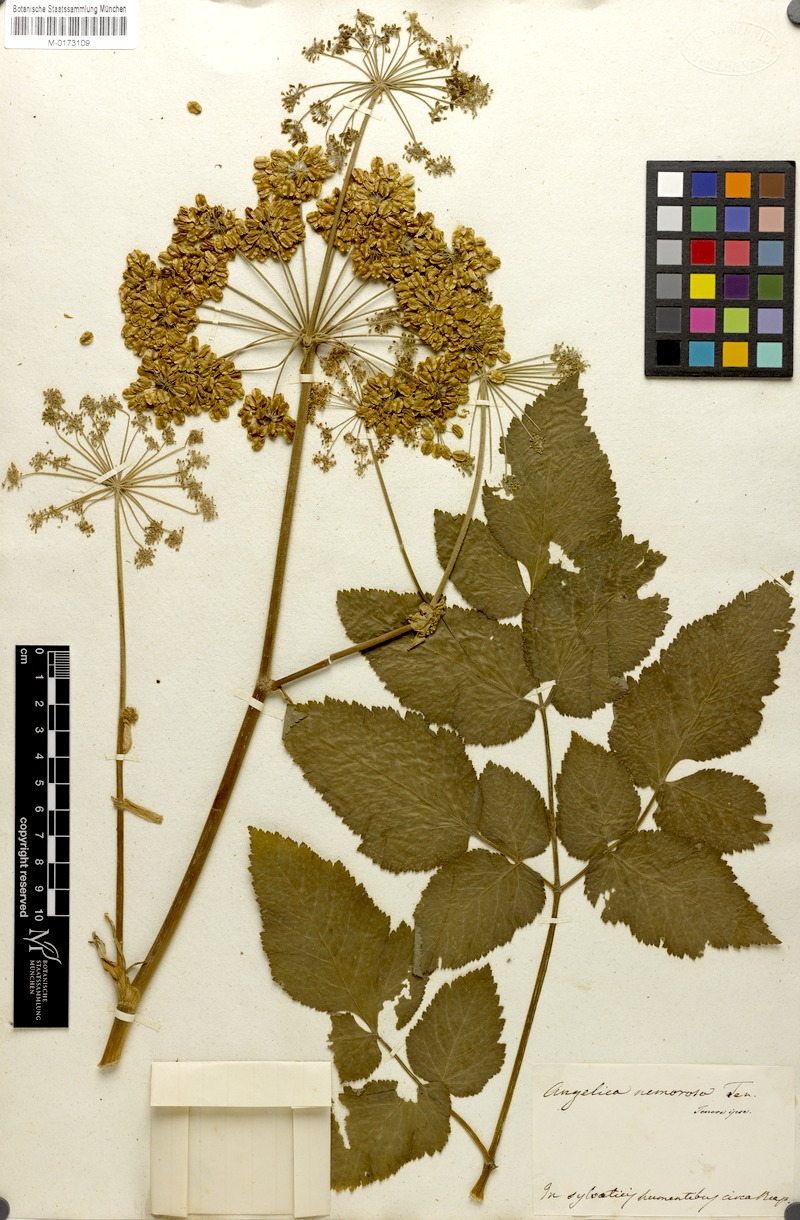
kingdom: Plantae
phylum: Tracheophyta
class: Magnoliopsida
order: Apiales
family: Apiaceae
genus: Angelica
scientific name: Angelica sylvestris
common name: Wild angelica
